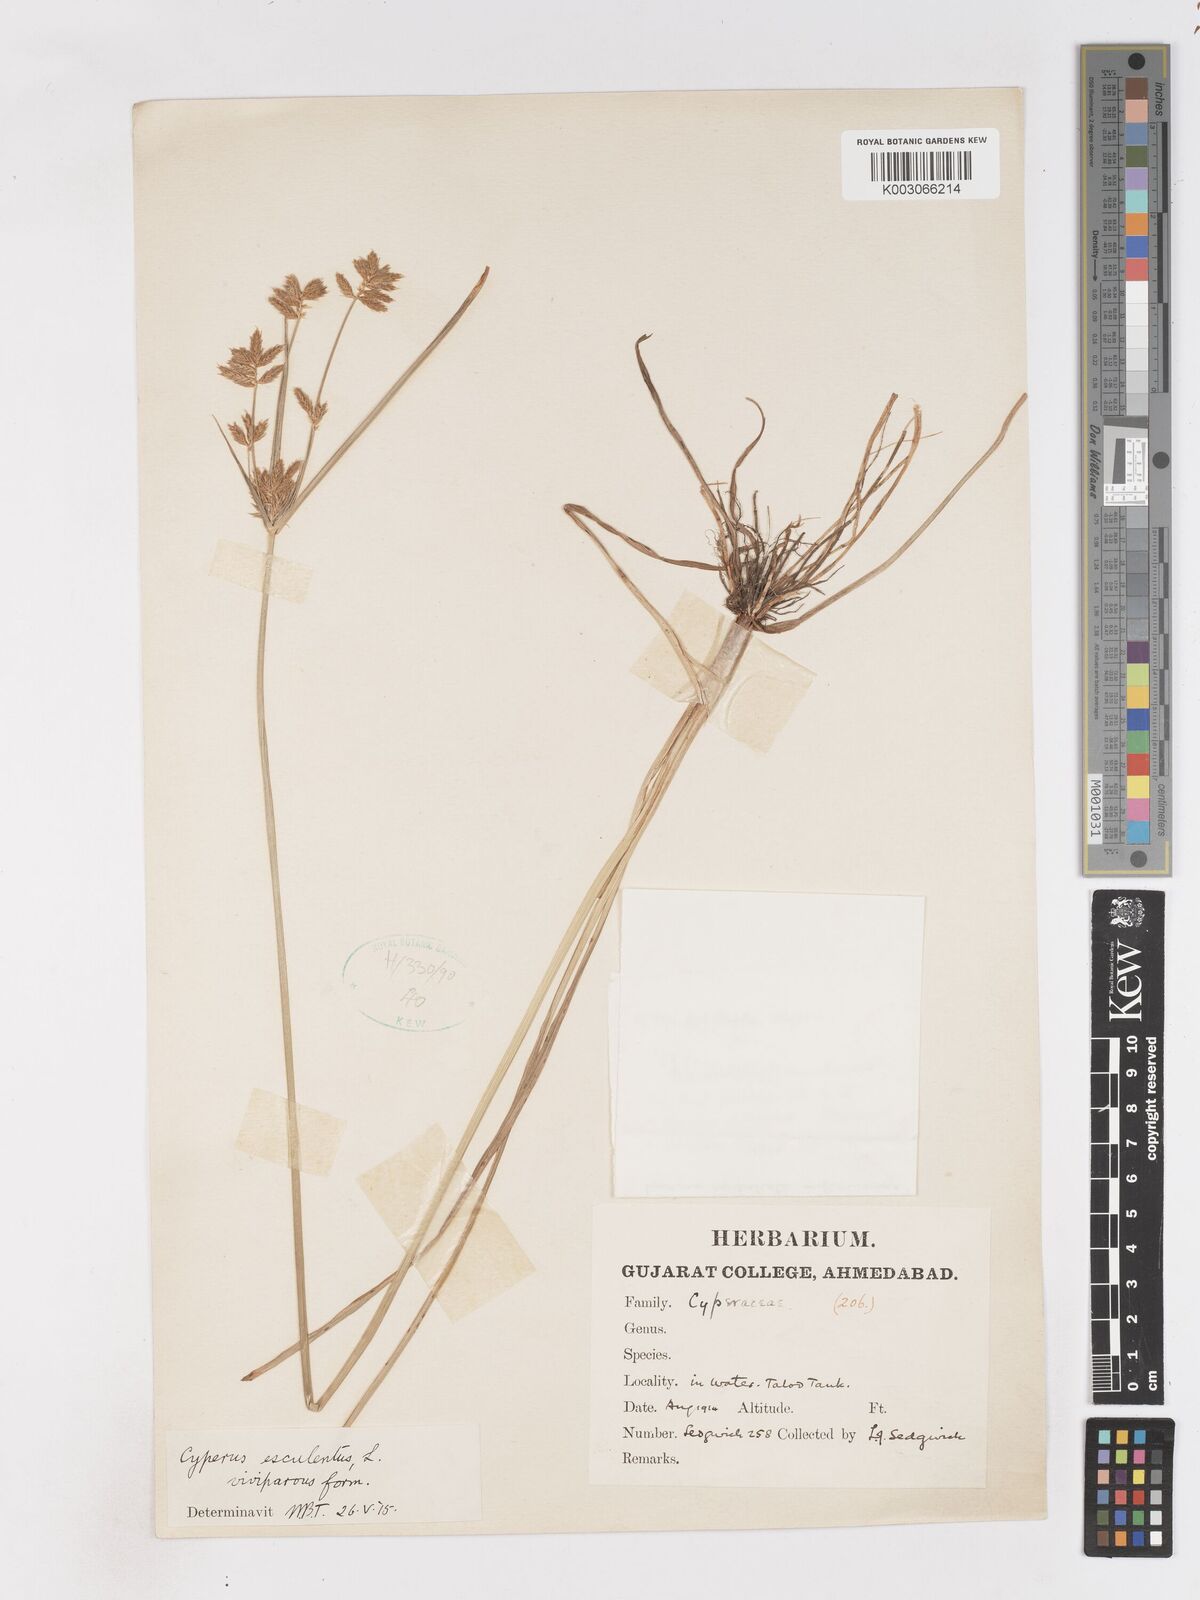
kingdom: Plantae
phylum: Tracheophyta
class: Liliopsida
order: Poales
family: Cyperaceae
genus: Cyperus
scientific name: Cyperus esculentus
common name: Yellow nutsedge
